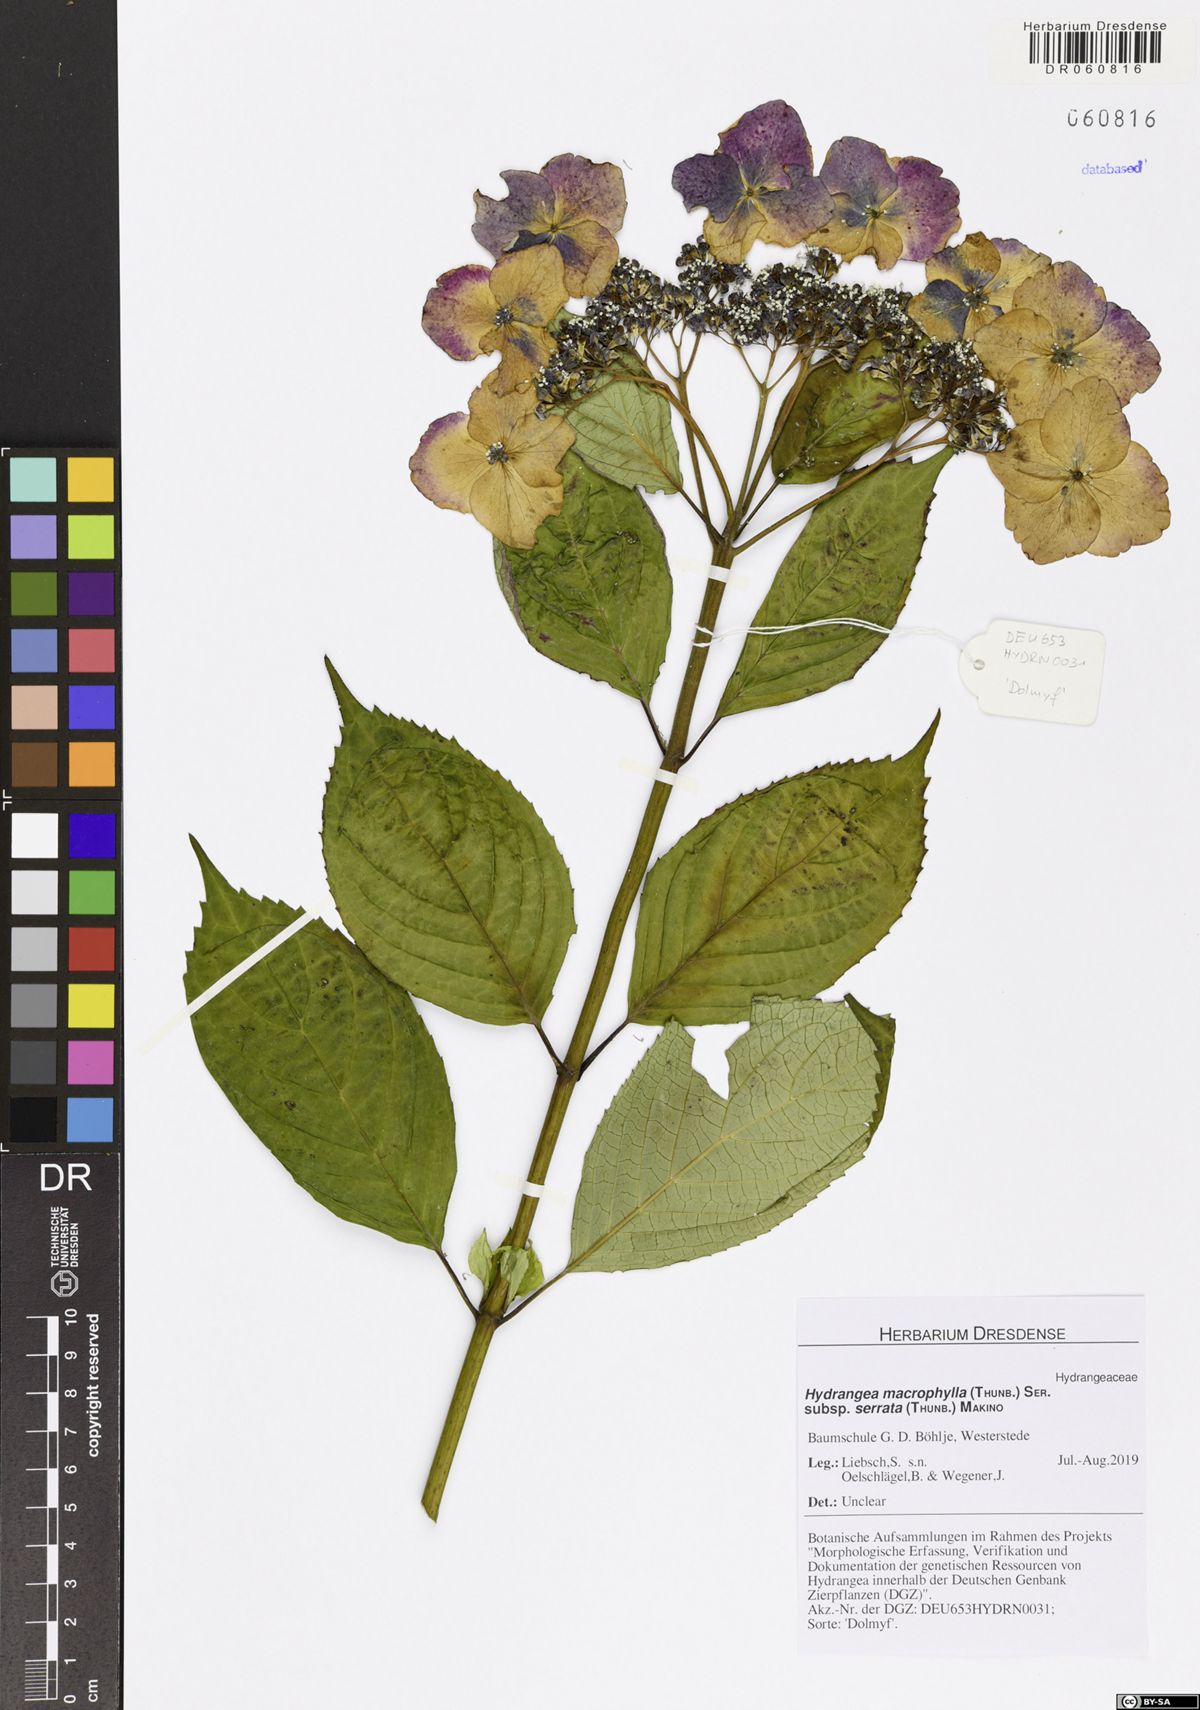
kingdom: Plantae
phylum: Tracheophyta
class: Magnoliopsida
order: Cornales
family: Hydrangeaceae
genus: Hydrangea
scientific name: Hydrangea serrata
